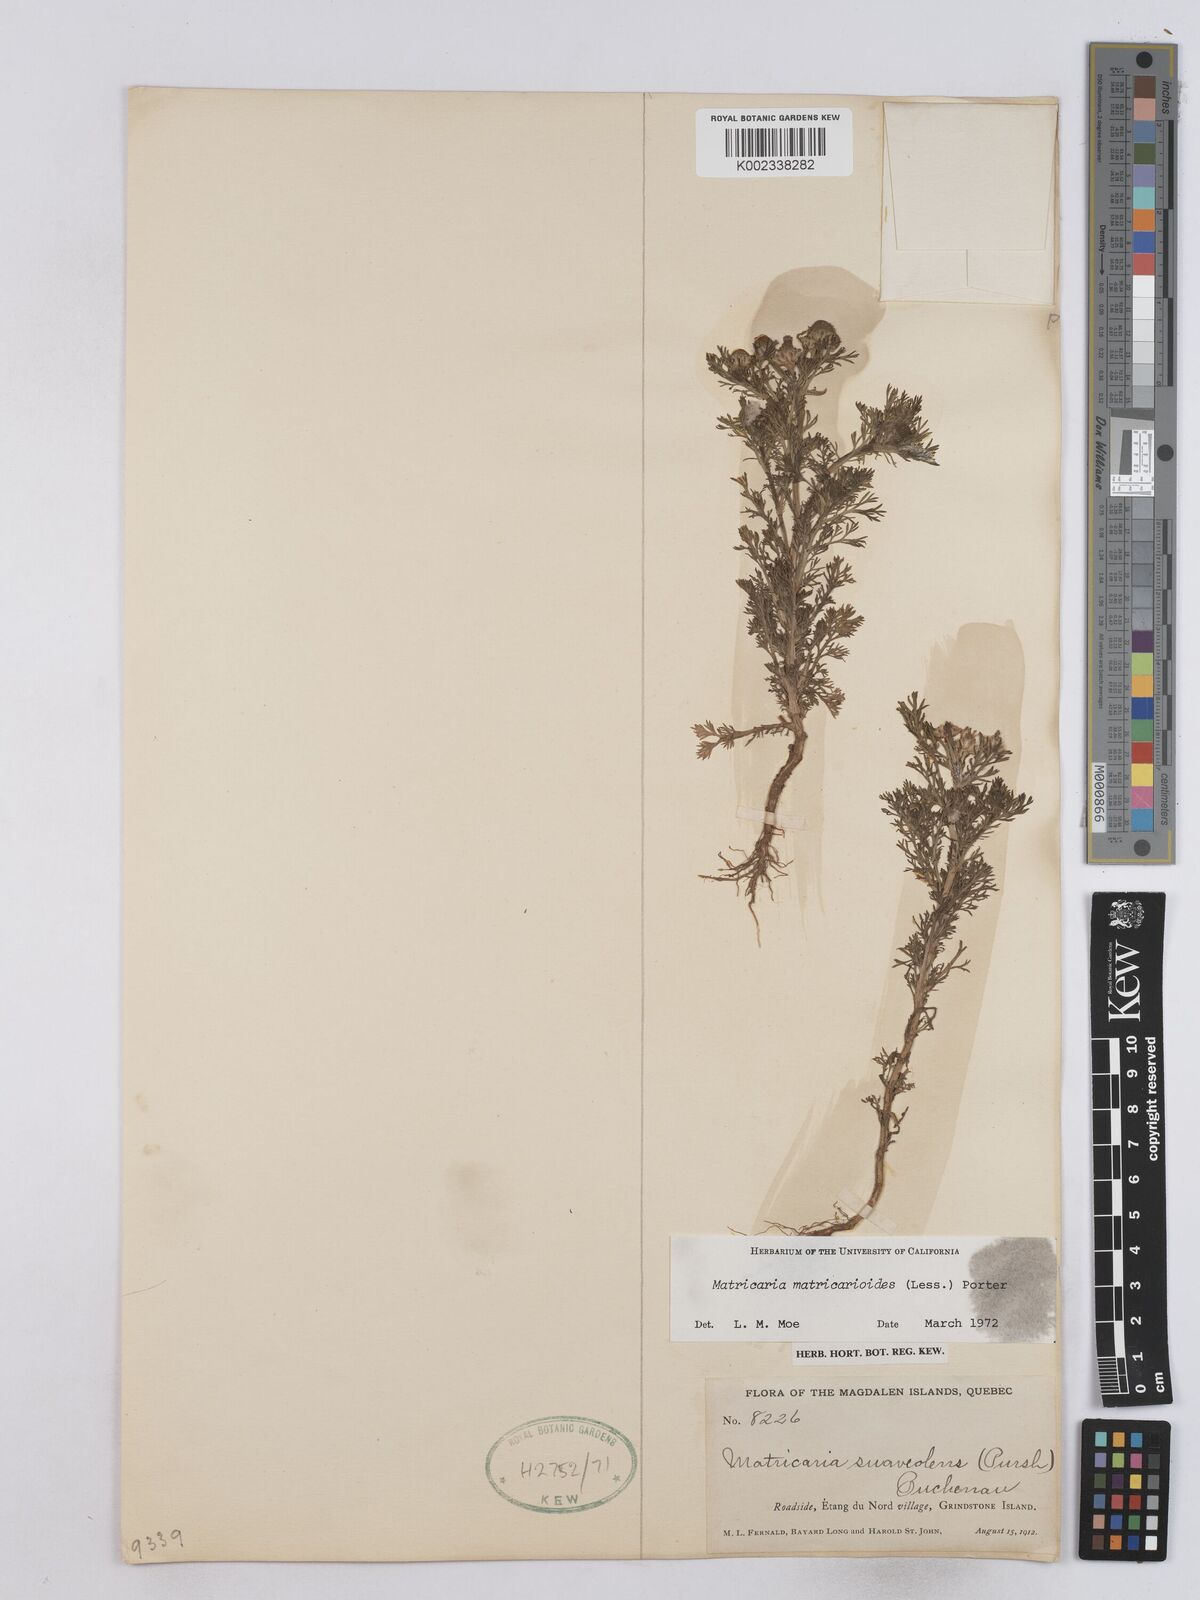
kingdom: Plantae
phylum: Tracheophyta
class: Magnoliopsida
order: Asterales
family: Asteraceae
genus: Matricaria
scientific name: Matricaria discoidea
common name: Disc mayweed
